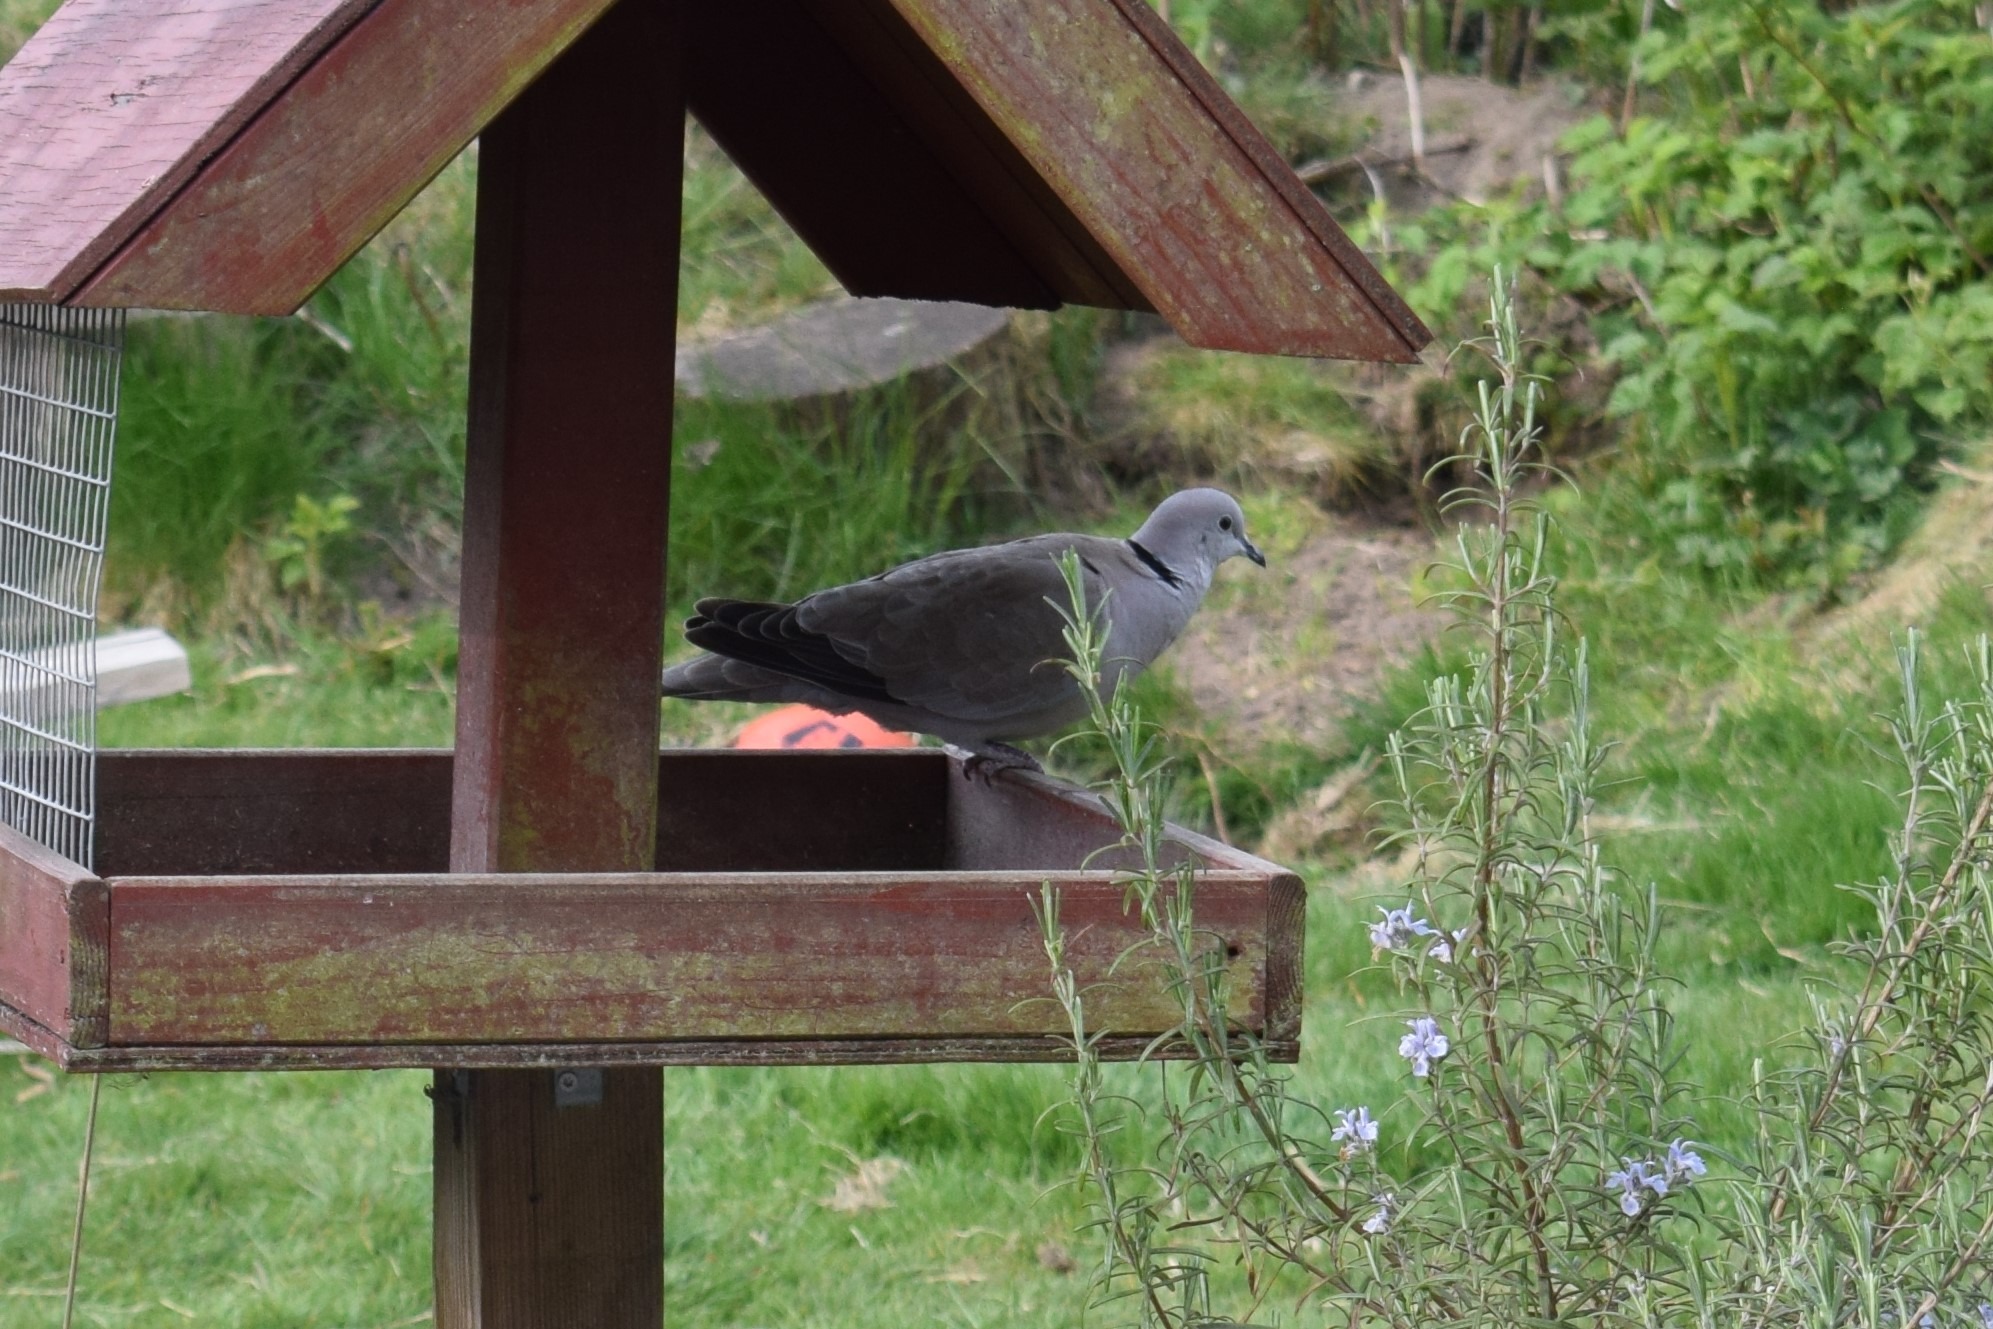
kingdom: Animalia
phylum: Chordata
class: Aves
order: Columbiformes
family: Columbidae
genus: Streptopelia
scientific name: Streptopelia decaocto
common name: Tyrkerdue
